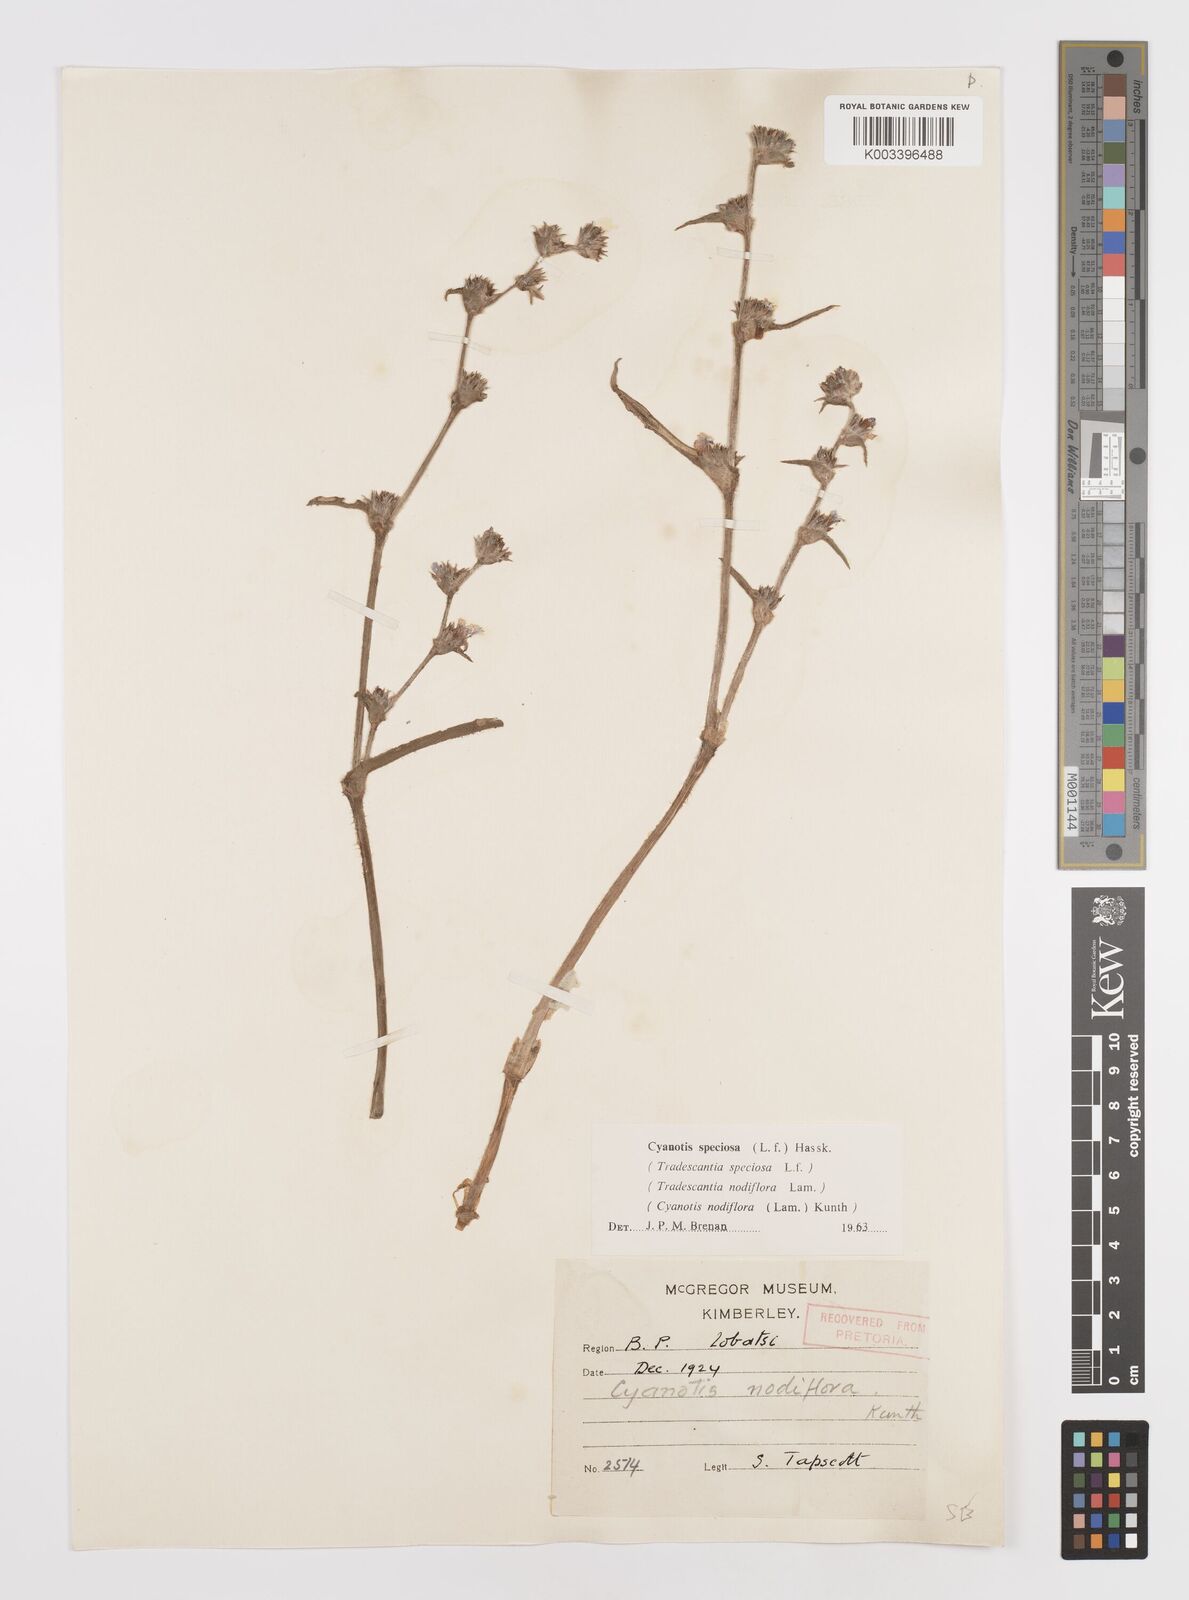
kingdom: Plantae
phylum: Tracheophyta
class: Liliopsida
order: Commelinales
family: Commelinaceae
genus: Cyanotis
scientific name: Cyanotis speciosa
